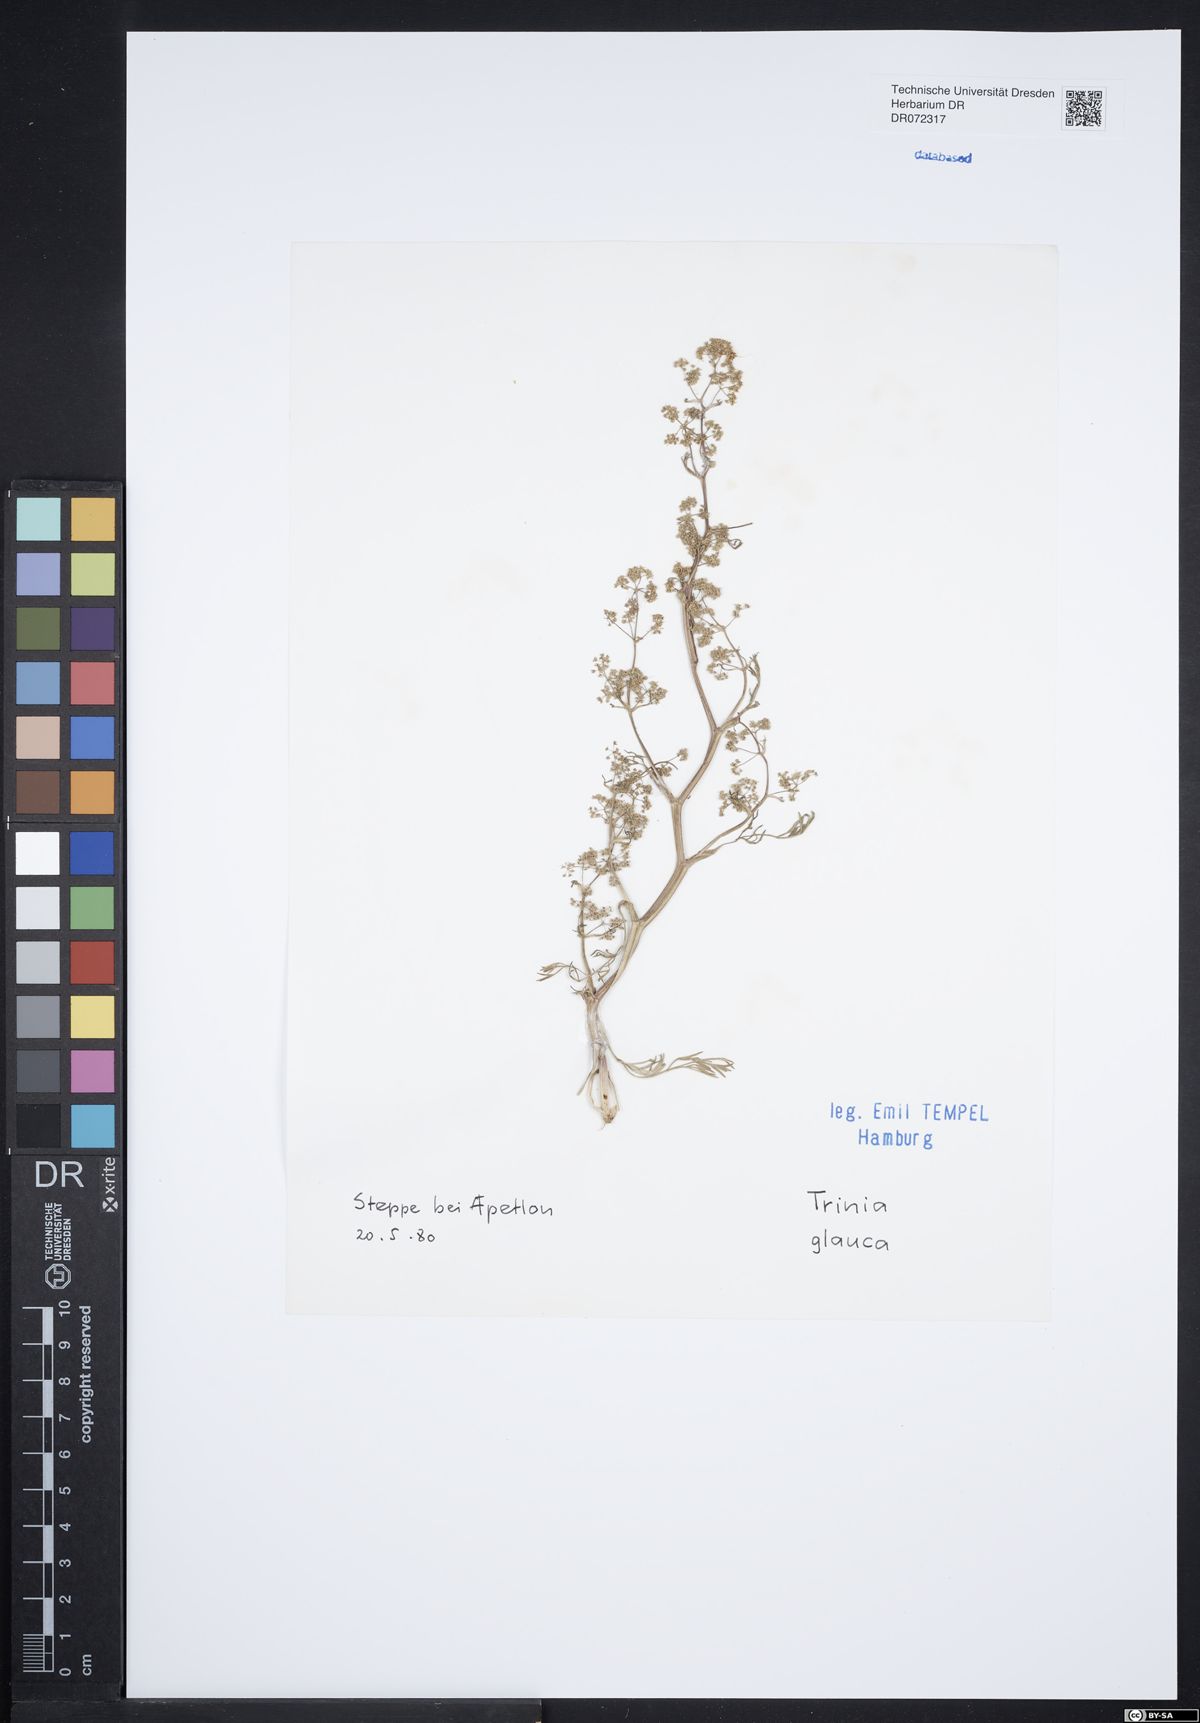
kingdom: Plantae
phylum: Tracheophyta
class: Magnoliopsida
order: Apiales
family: Apiaceae
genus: Trinia
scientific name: Trinia glauca
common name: Honewort
